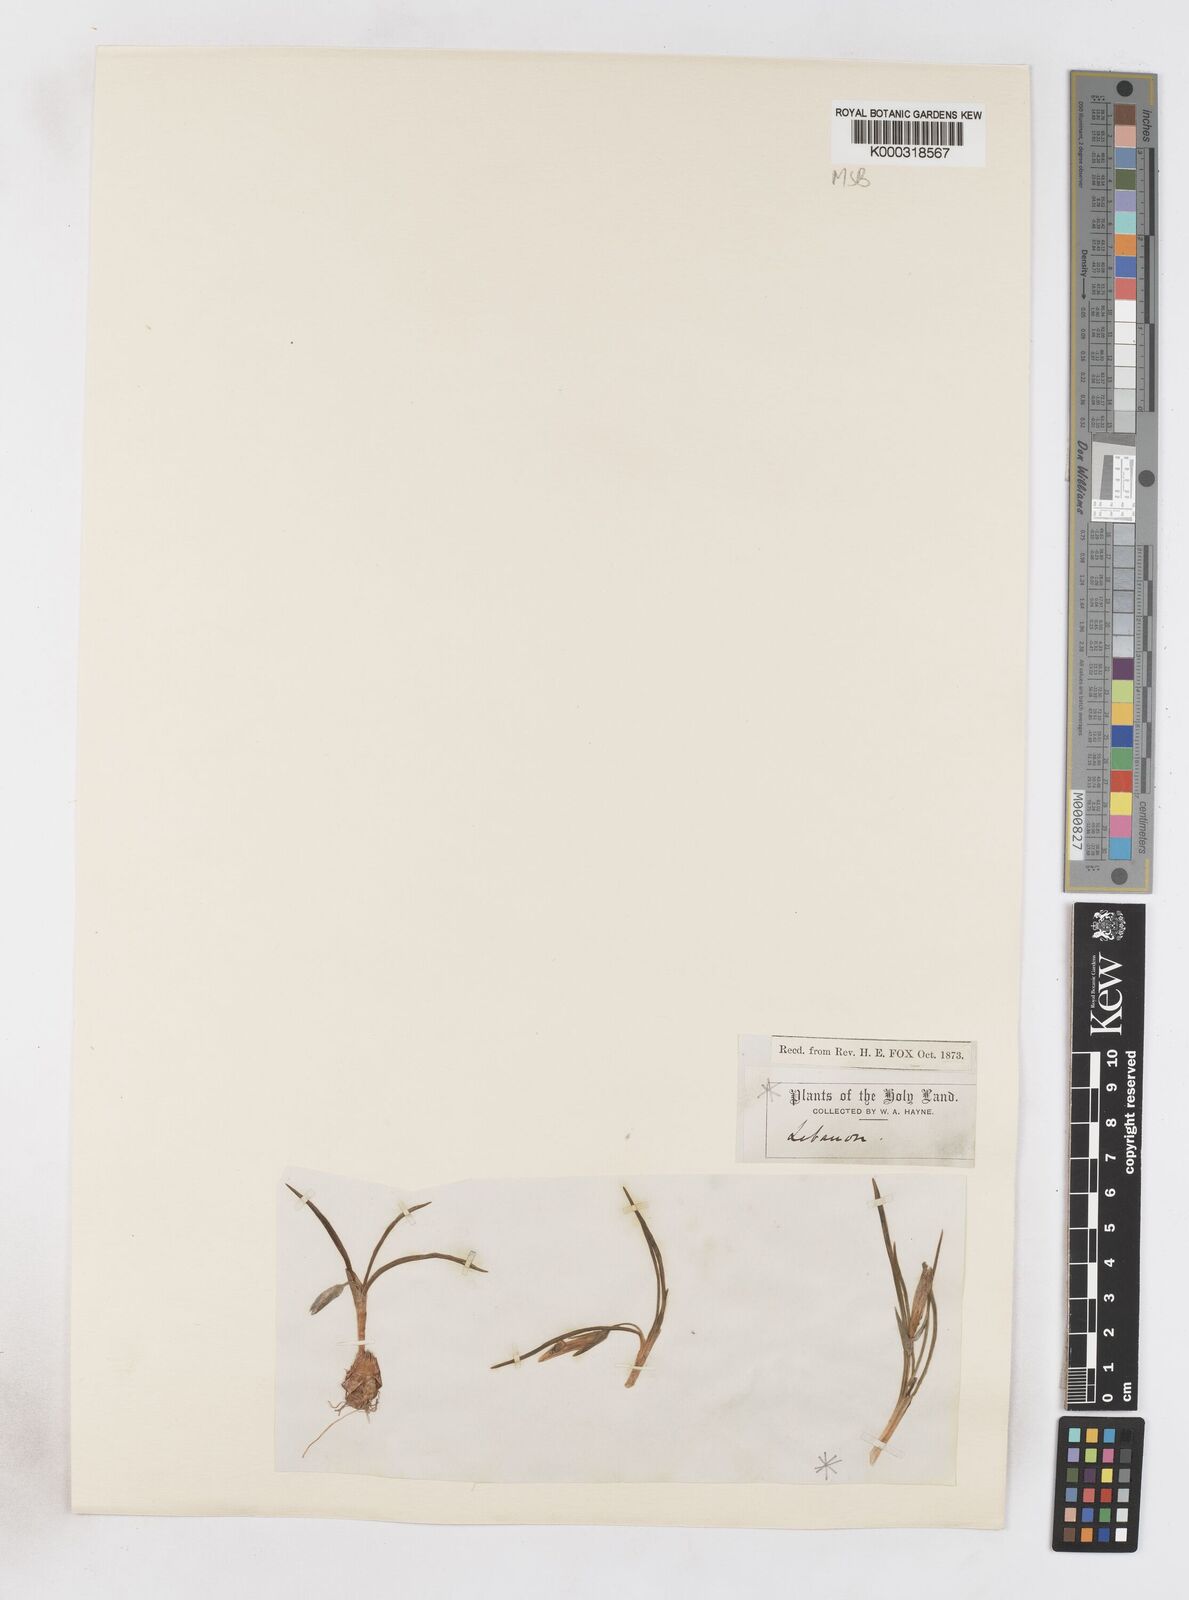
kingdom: Plantae
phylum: Tracheophyta
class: Liliopsida
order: Asparagales
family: Iridaceae
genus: Romulea
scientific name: Romulea bulbocodium
